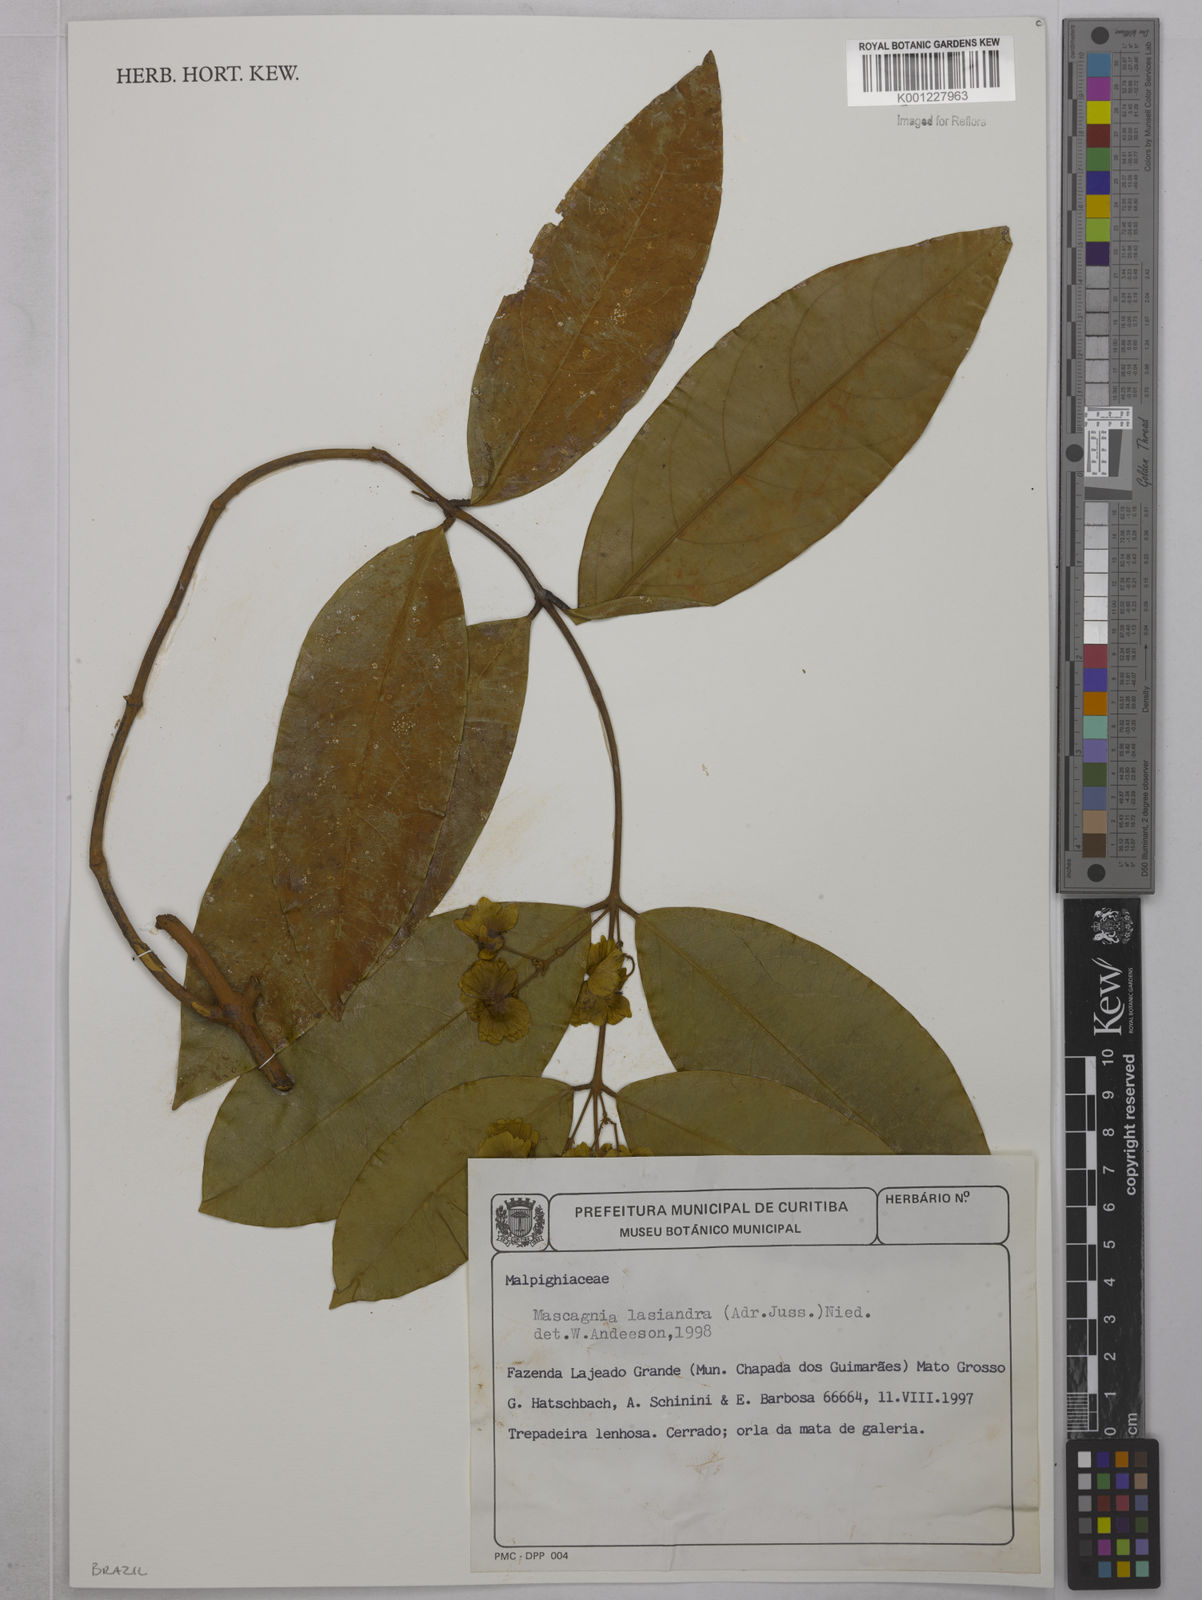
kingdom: Plantae
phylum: Tracheophyta
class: Magnoliopsida
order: Malpighiales
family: Malpighiaceae
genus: Niedenzuella
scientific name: Niedenzuella lasiandra
